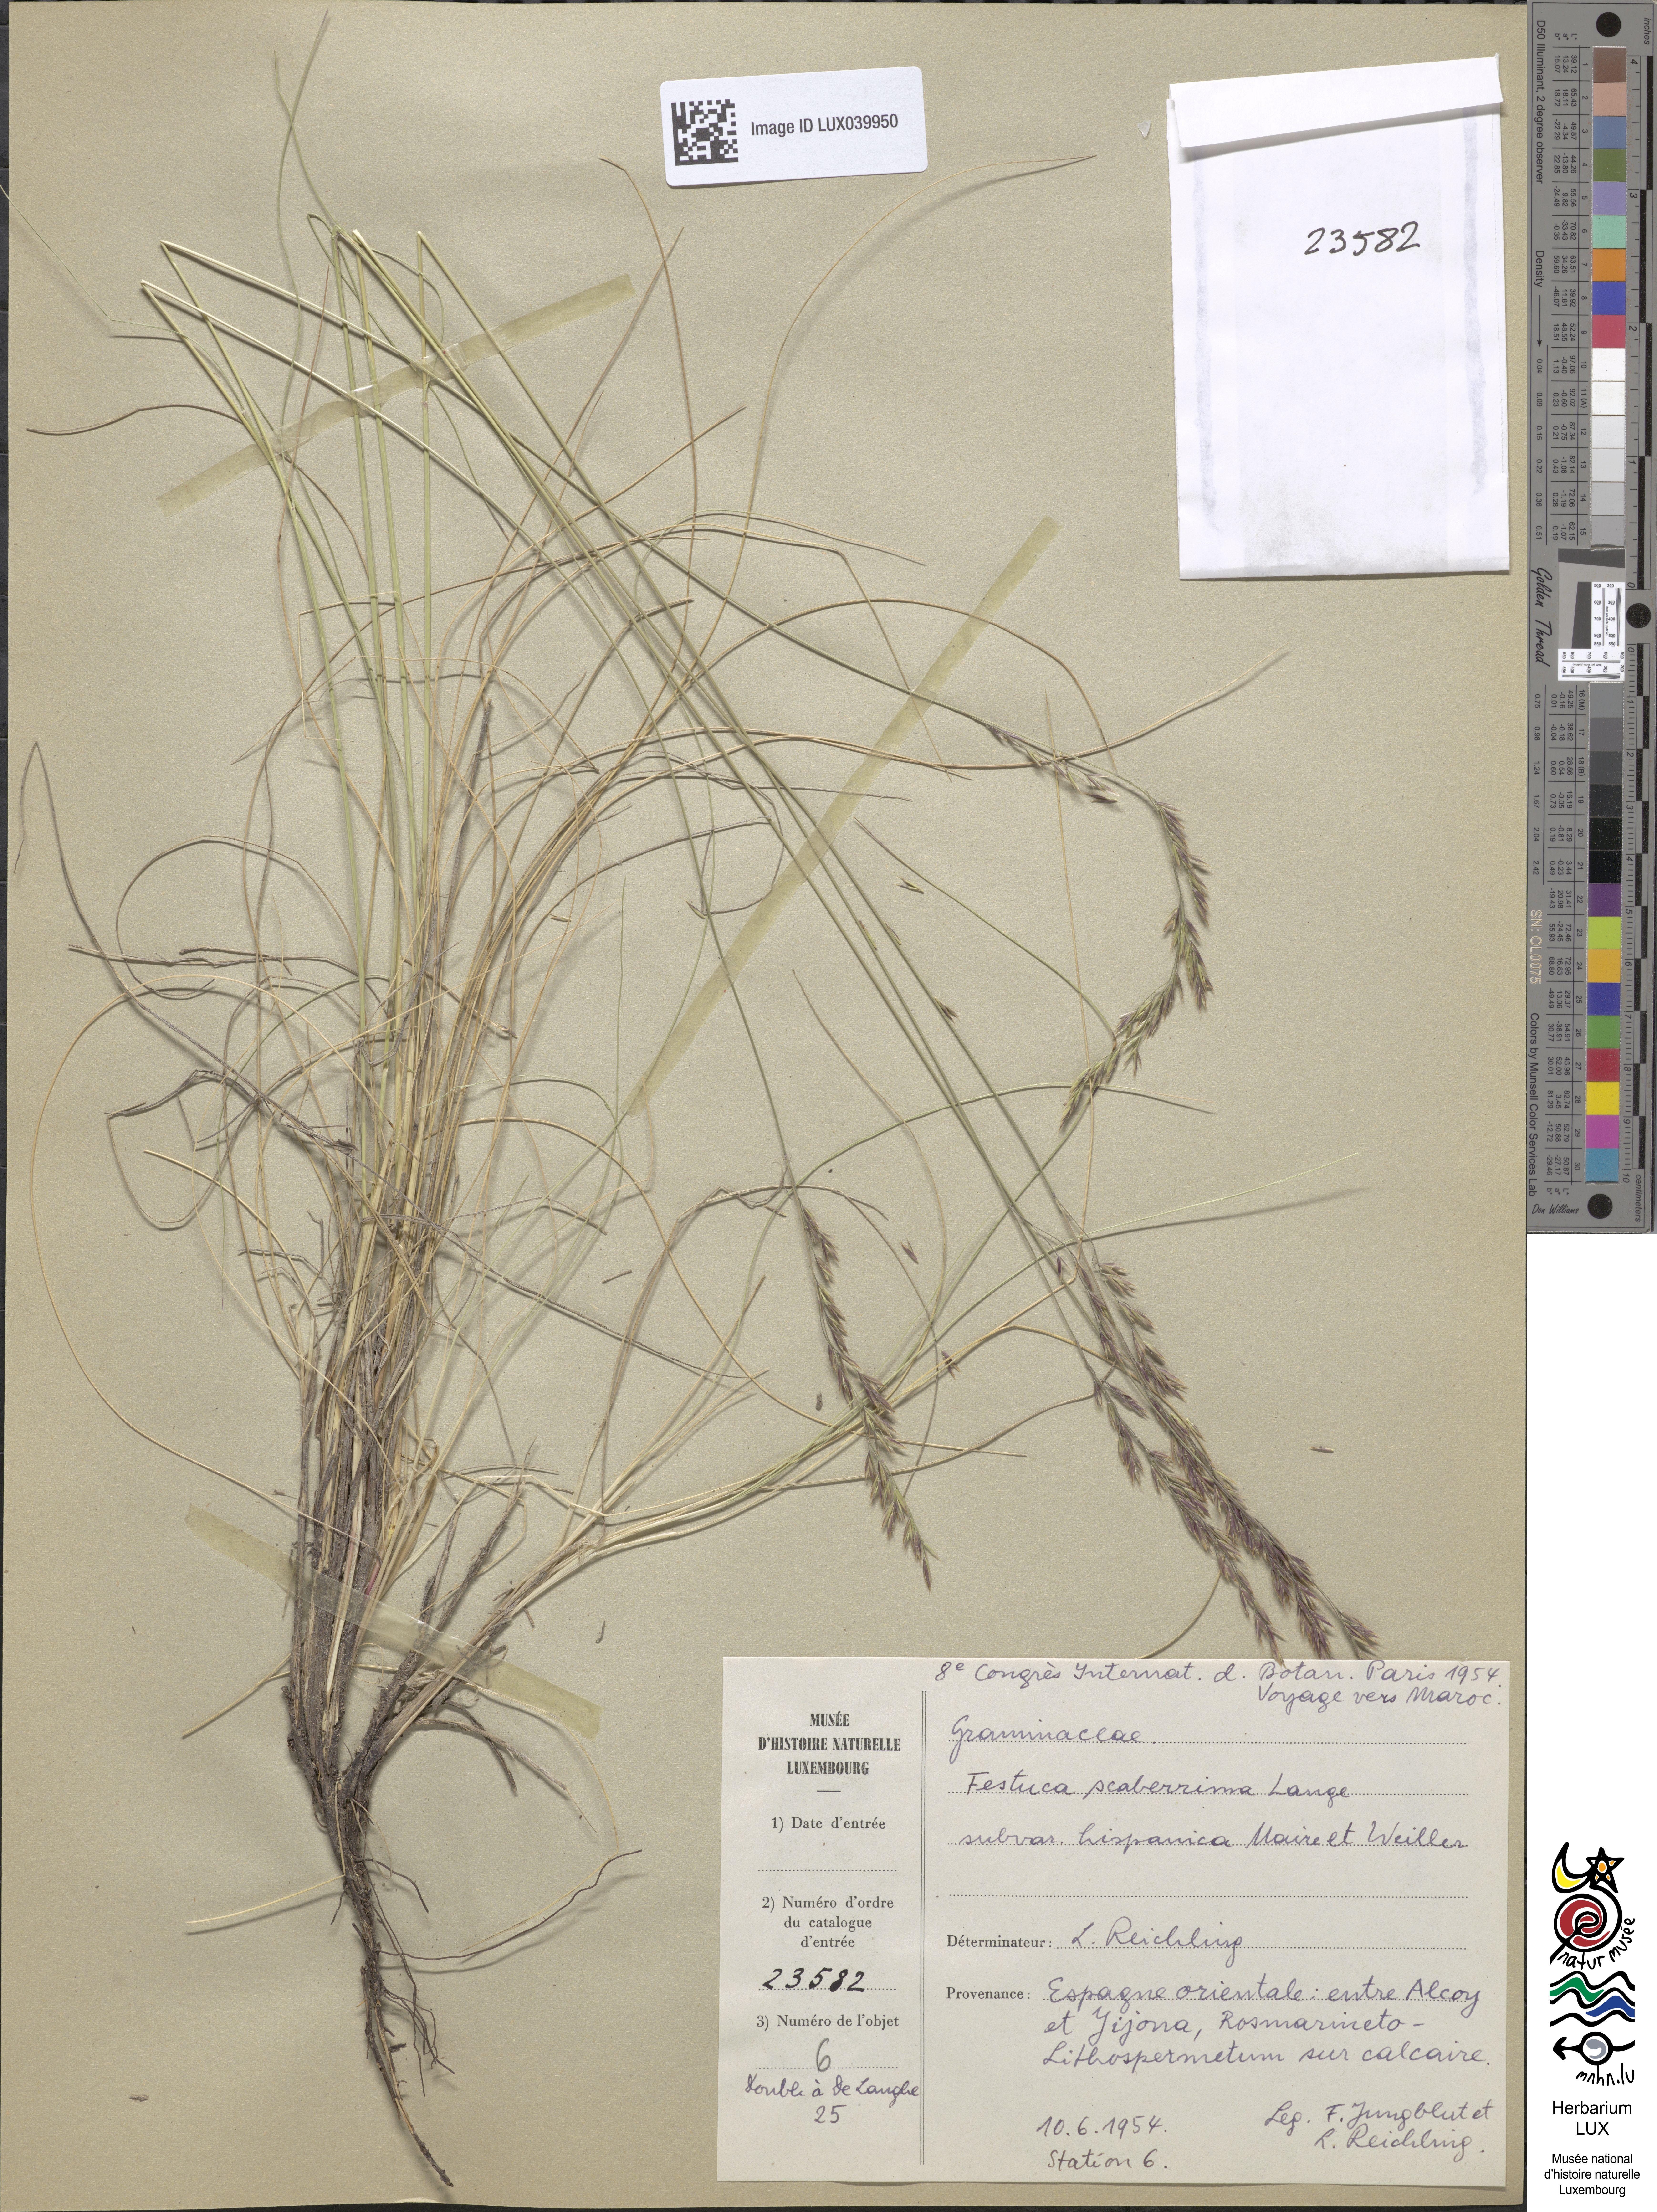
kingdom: Plantae
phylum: Tracheophyta
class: Liliopsida
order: Poales
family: Poaceae
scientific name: Poaceae
